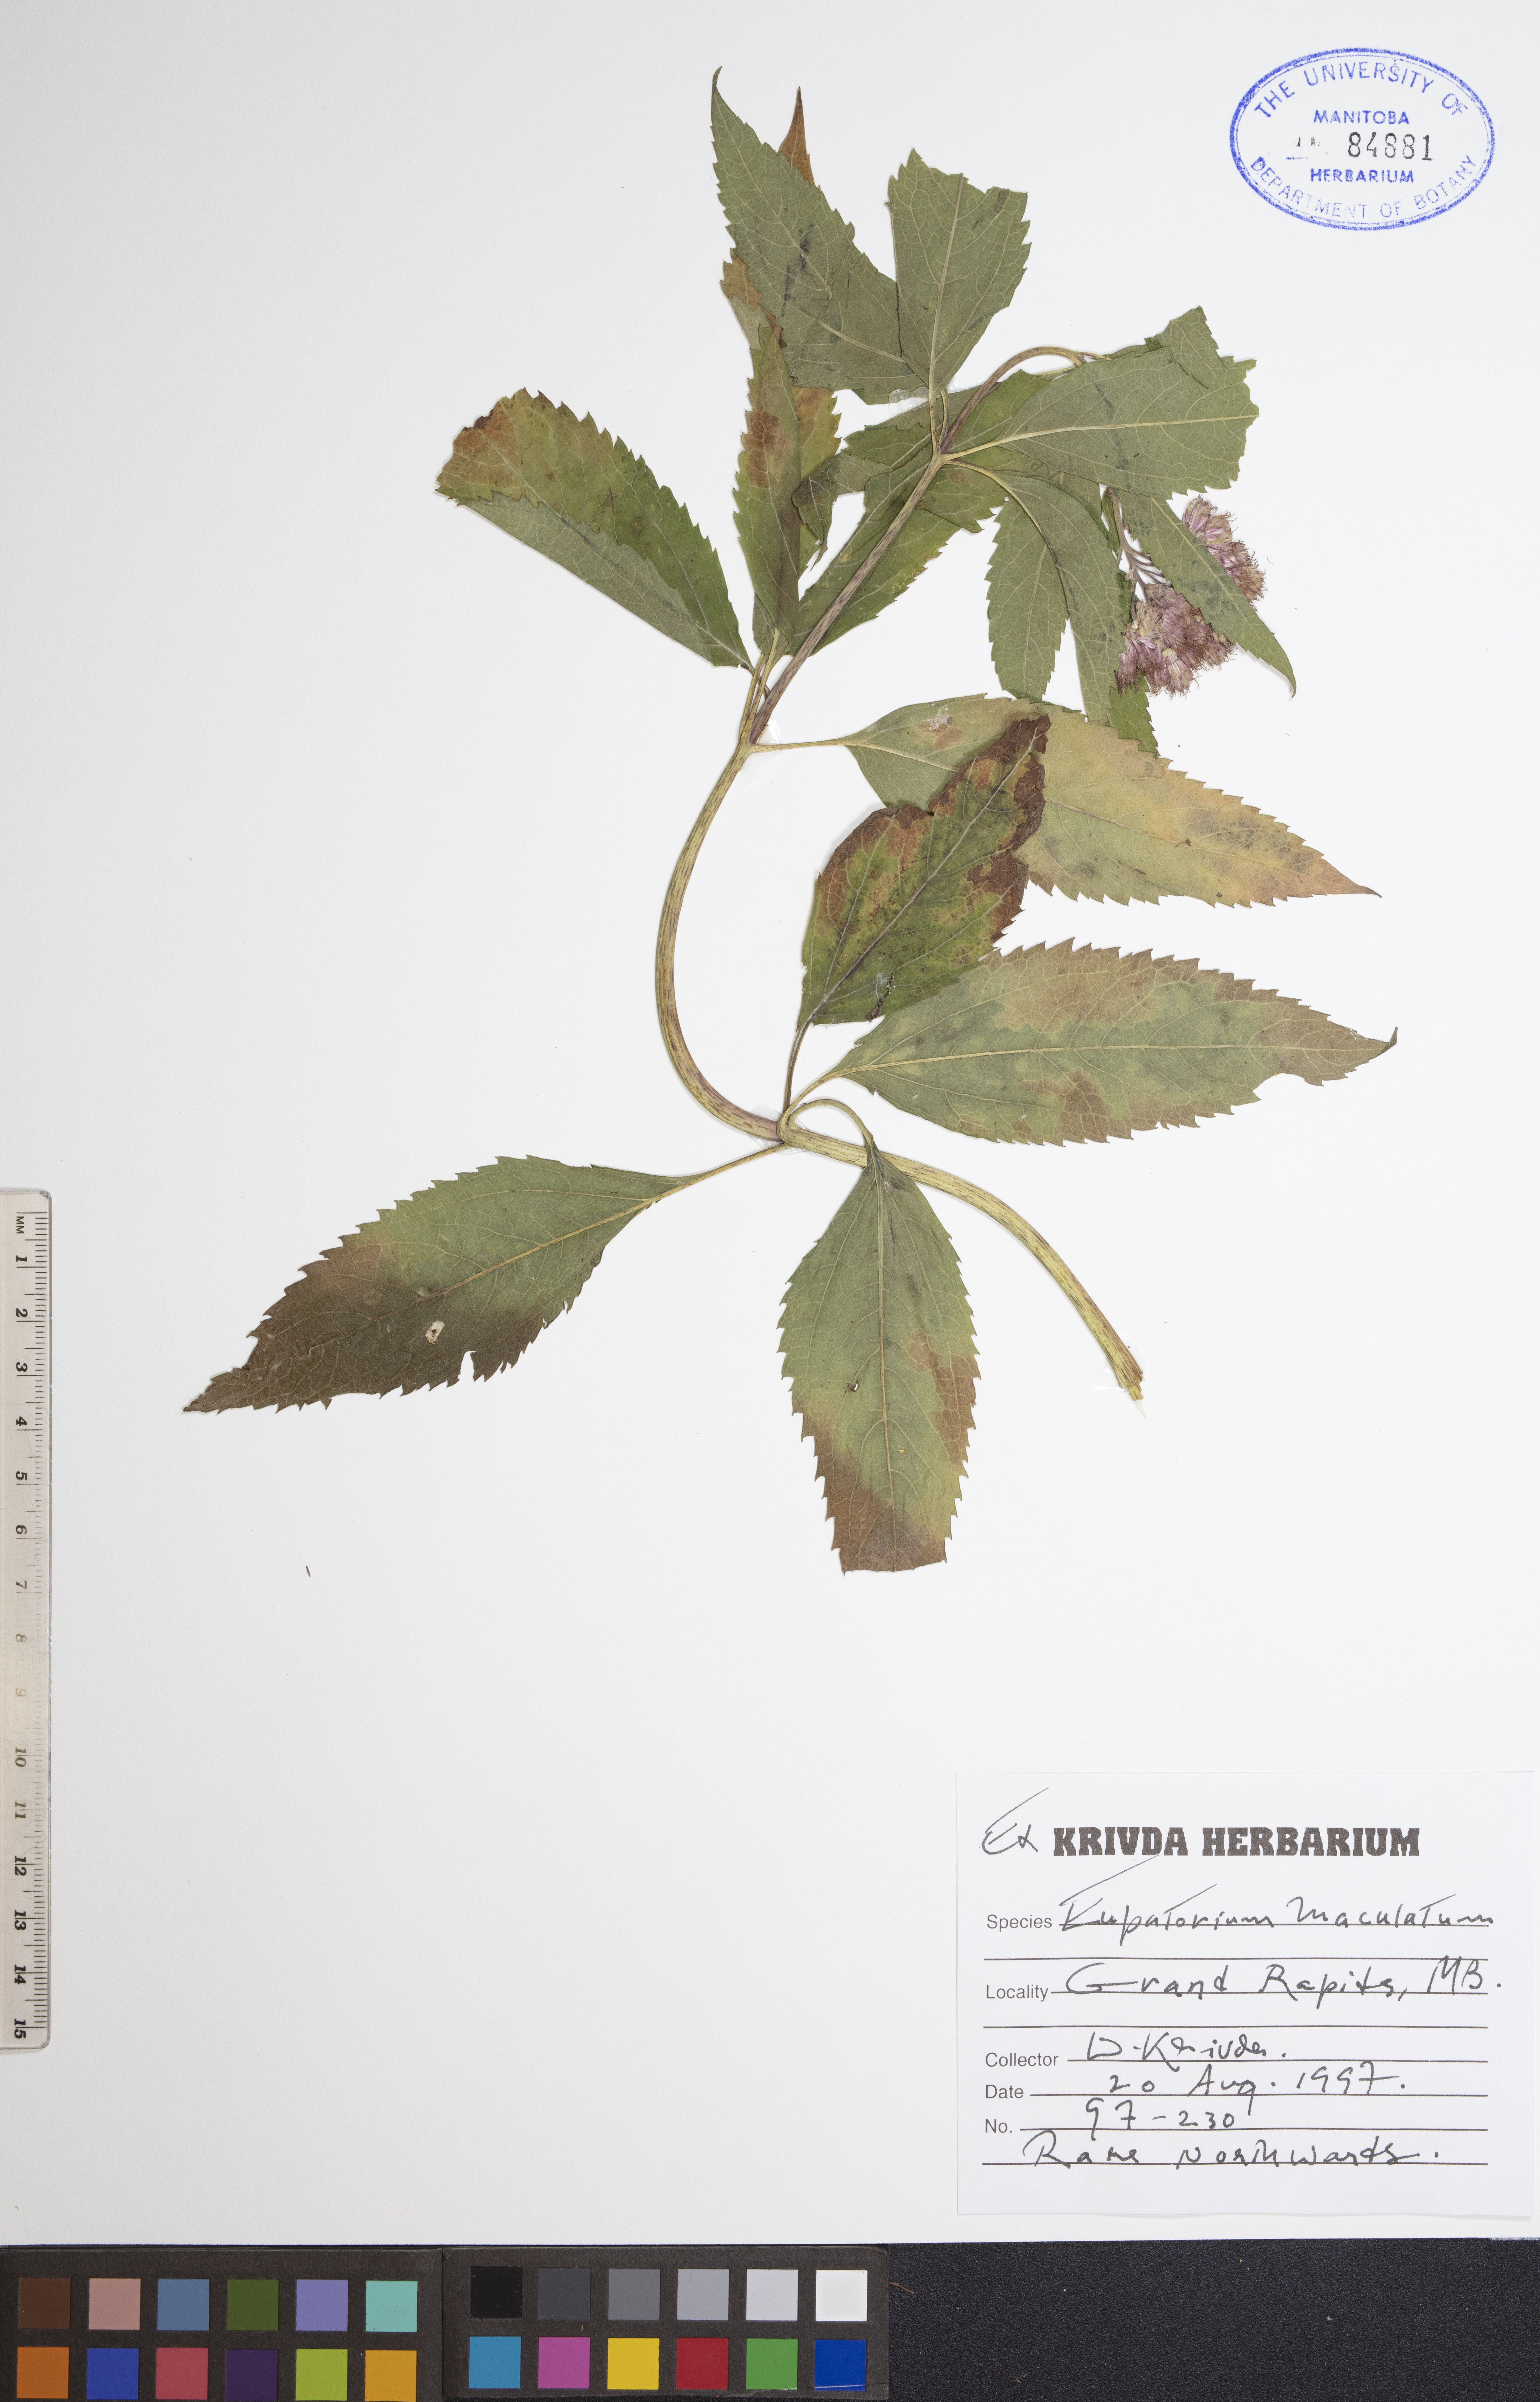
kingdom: Plantae
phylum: Tracheophyta
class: Magnoliopsida
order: Asterales
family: Asteraceae
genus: Eutrochium
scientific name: Eutrochium maculatum
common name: Spotted joe pye weed
